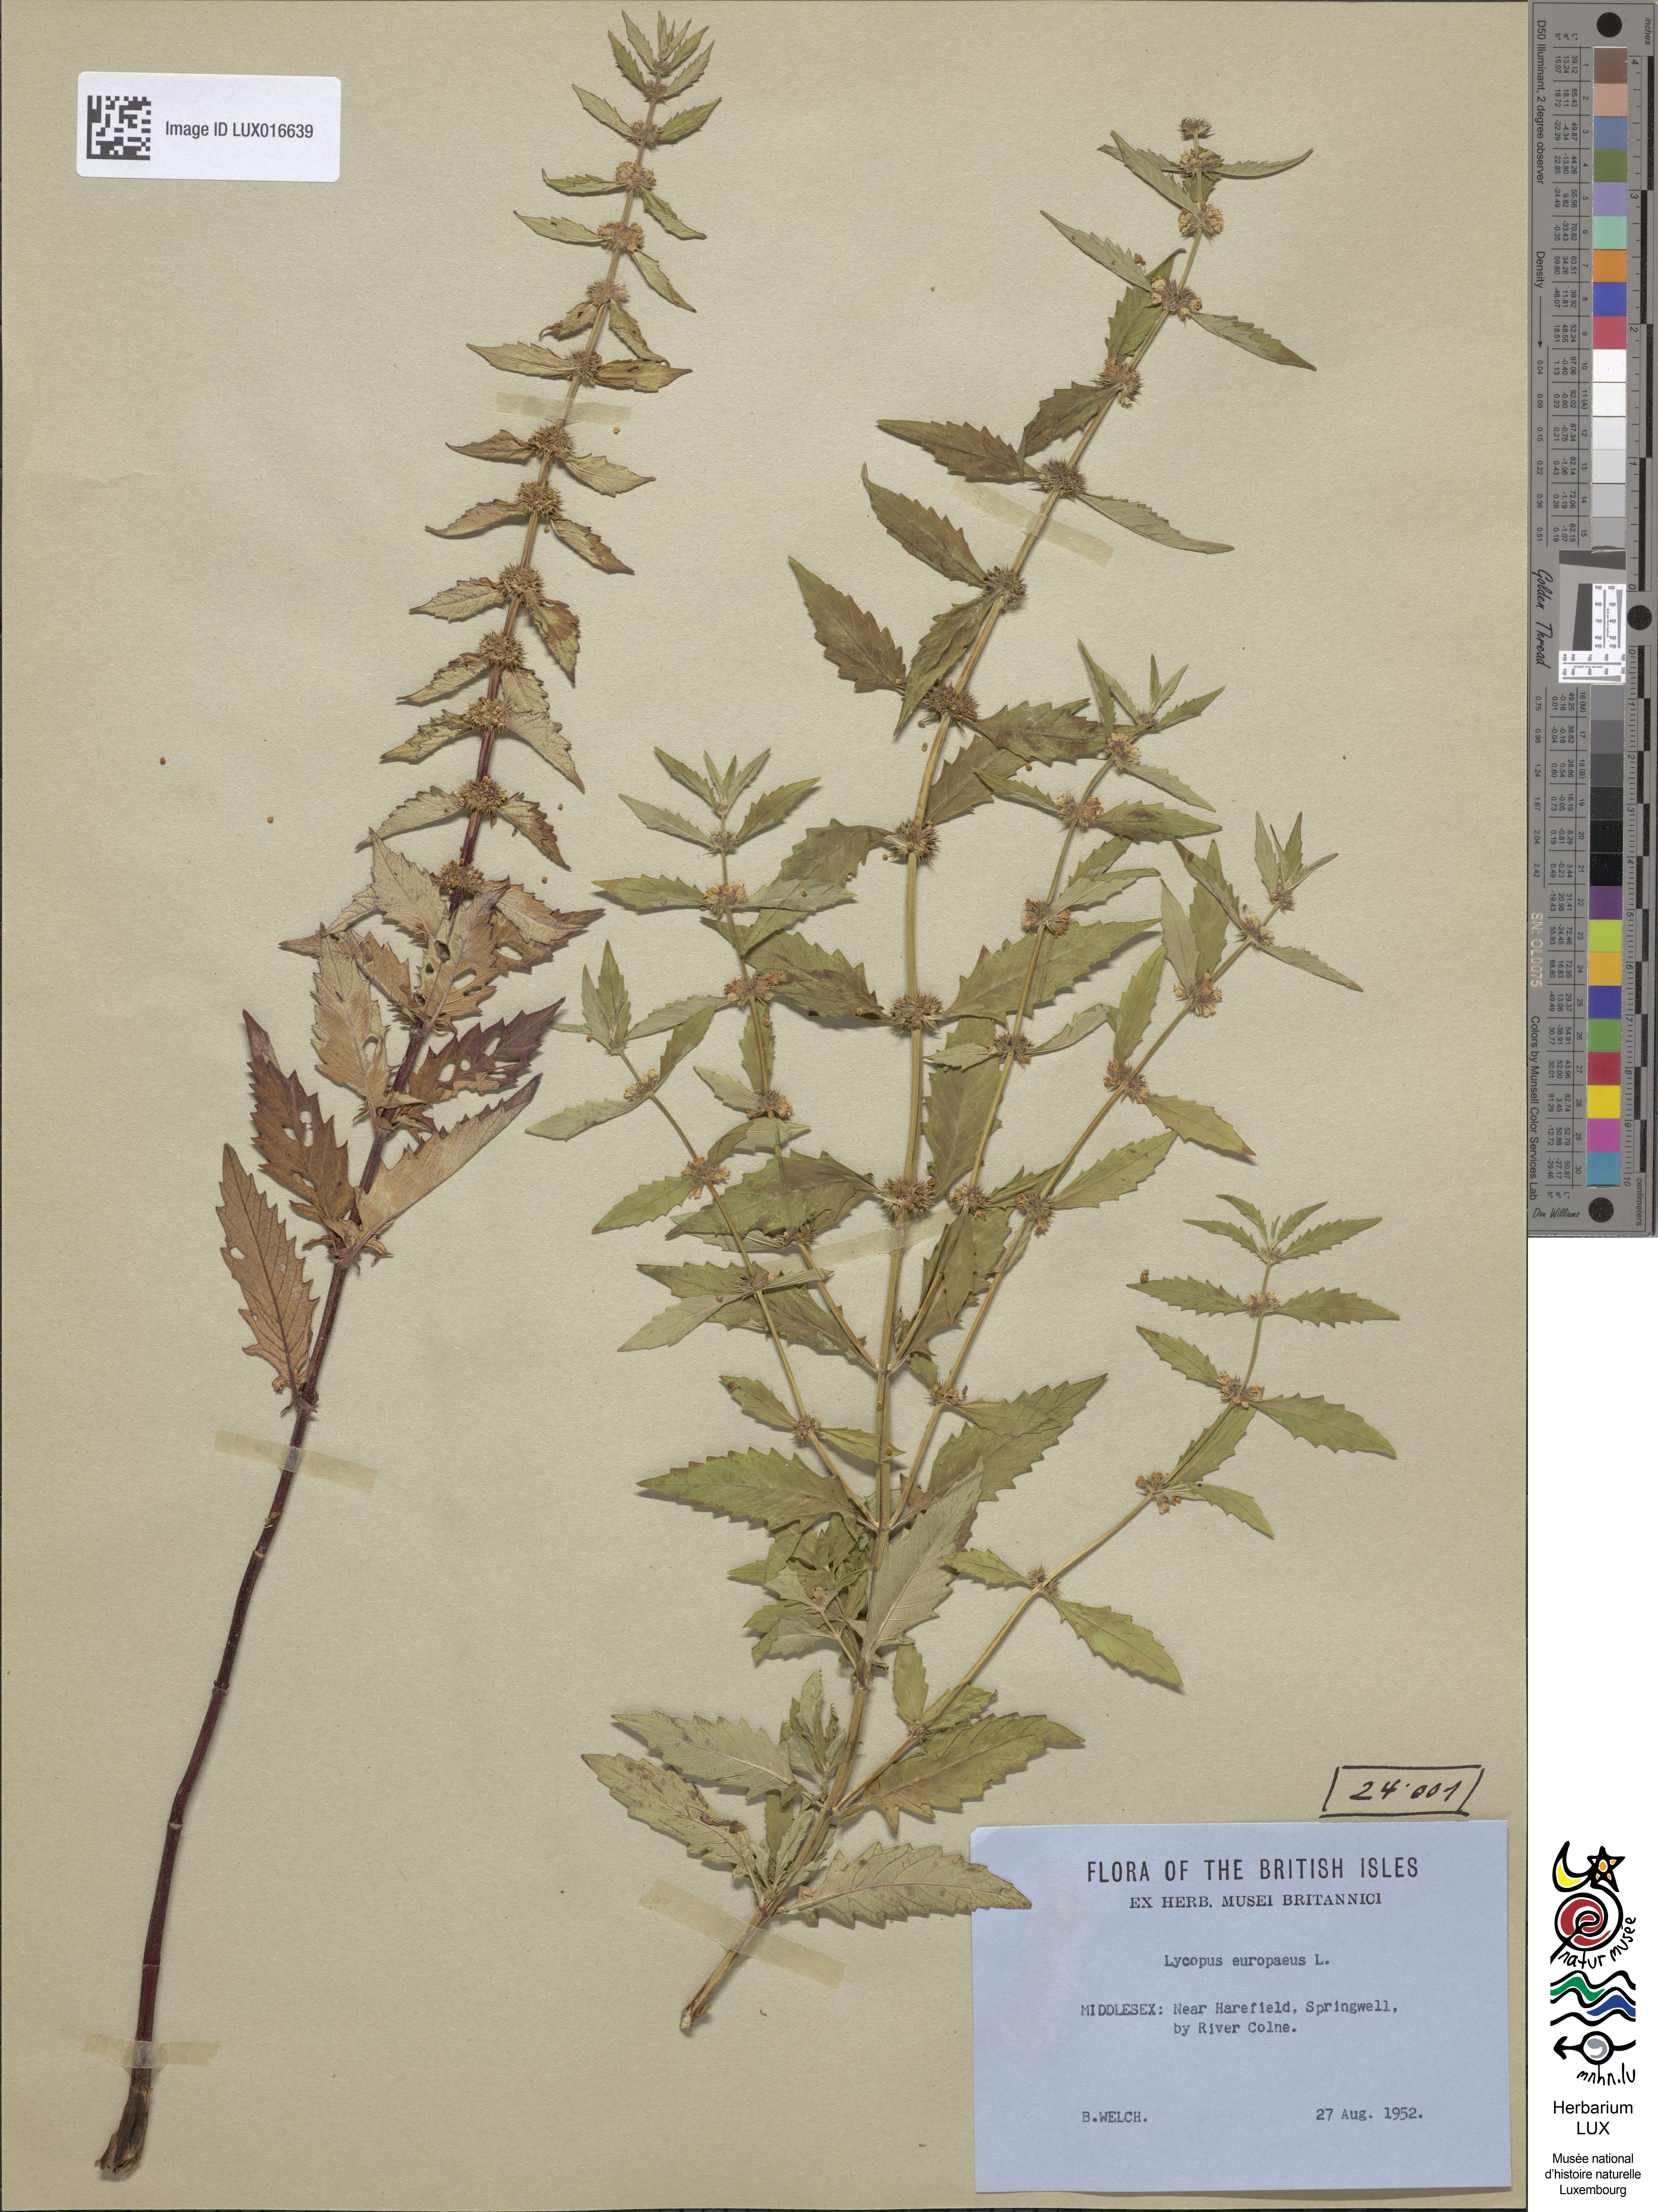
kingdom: Plantae
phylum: Tracheophyta
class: Magnoliopsida
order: Lamiales
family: Lamiaceae
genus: Lycopus
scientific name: Lycopus europaeus
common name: European bugleweed
